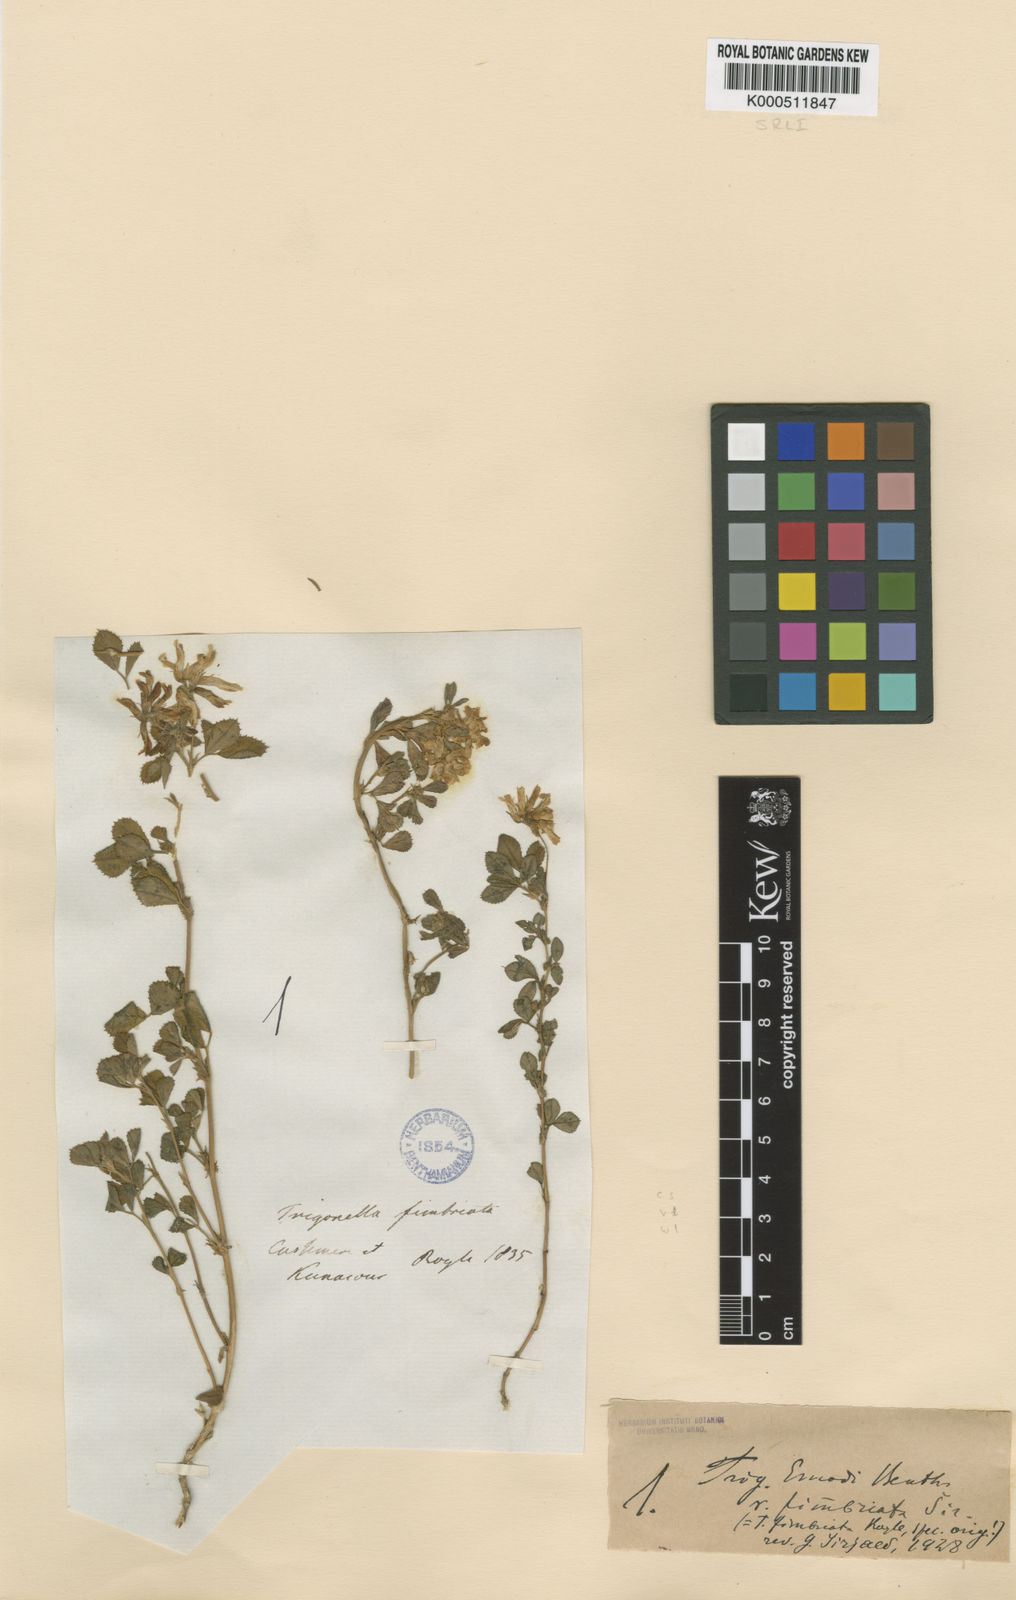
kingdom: Plantae
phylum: Tracheophyta
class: Magnoliopsida
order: Fabales
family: Fabaceae
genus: Trigonella
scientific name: Trigonella emodi
